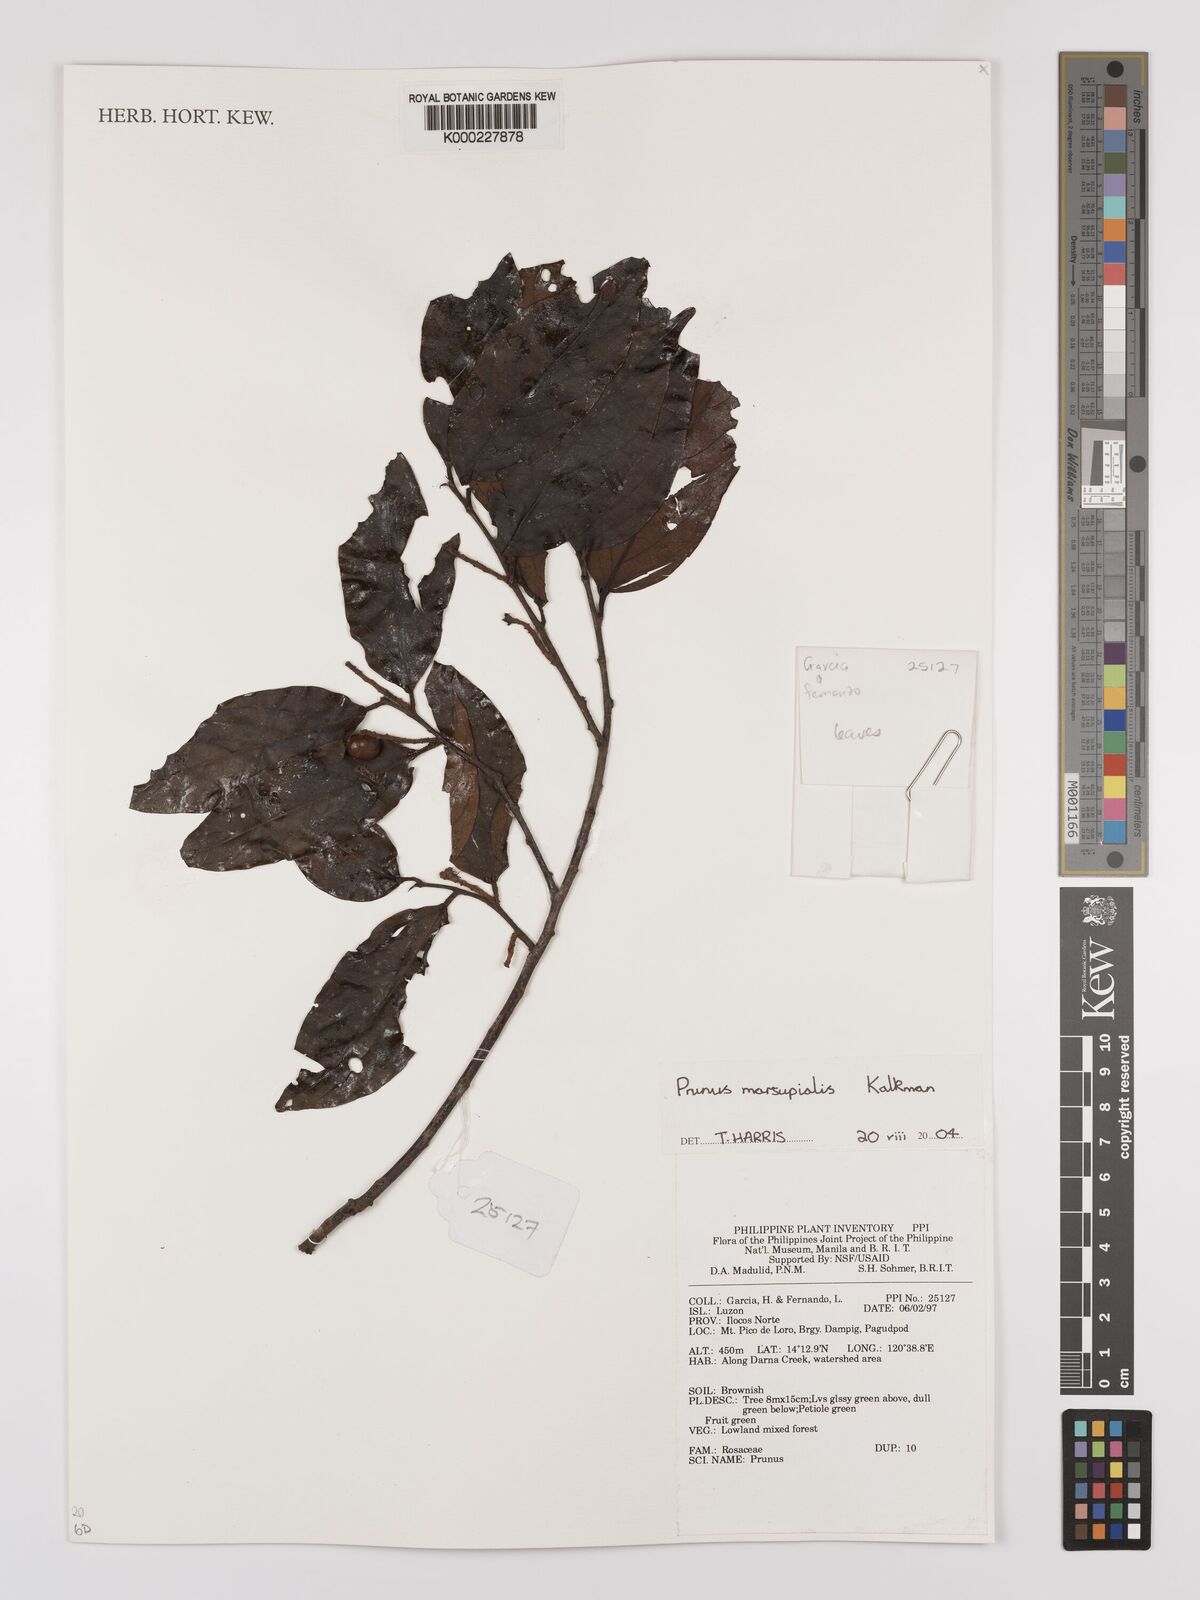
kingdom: Plantae
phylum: Tracheophyta
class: Magnoliopsida
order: Rosales
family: Rosaceae
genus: Prunus
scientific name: Prunus marsupialis
